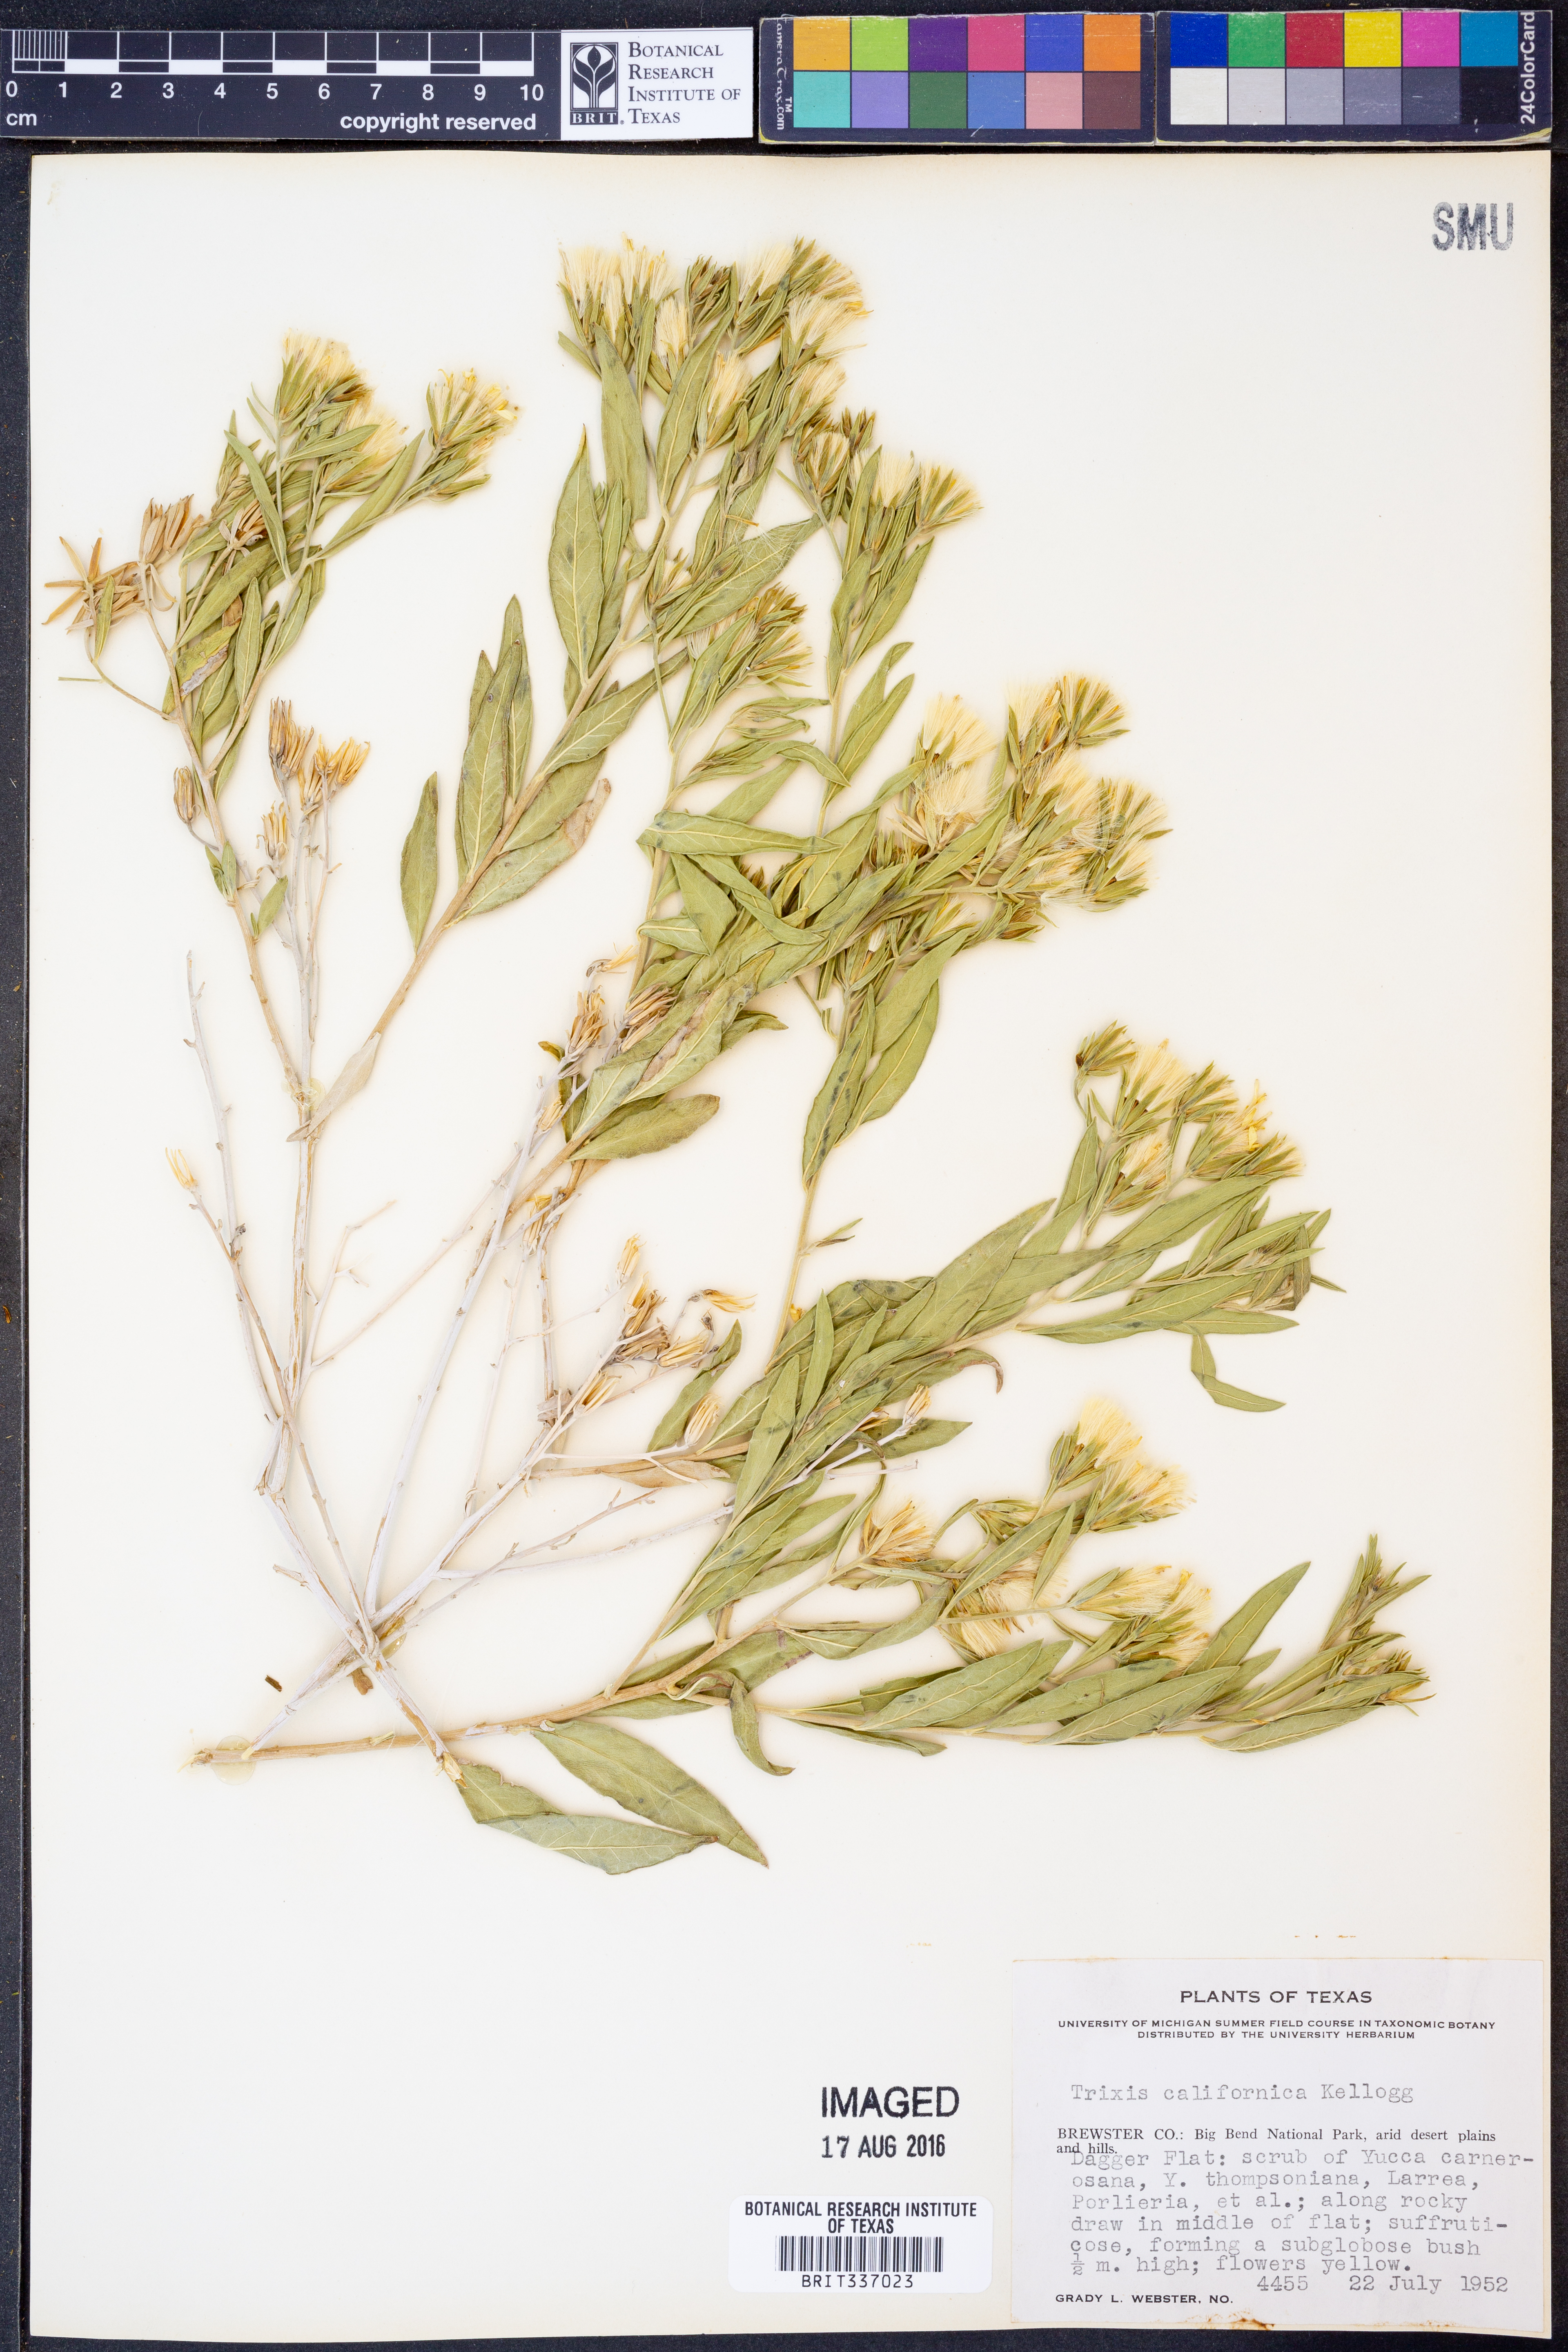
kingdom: Plantae
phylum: Tracheophyta
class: Magnoliopsida
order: Asterales
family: Asteraceae
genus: Trixis
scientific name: Trixis californica
